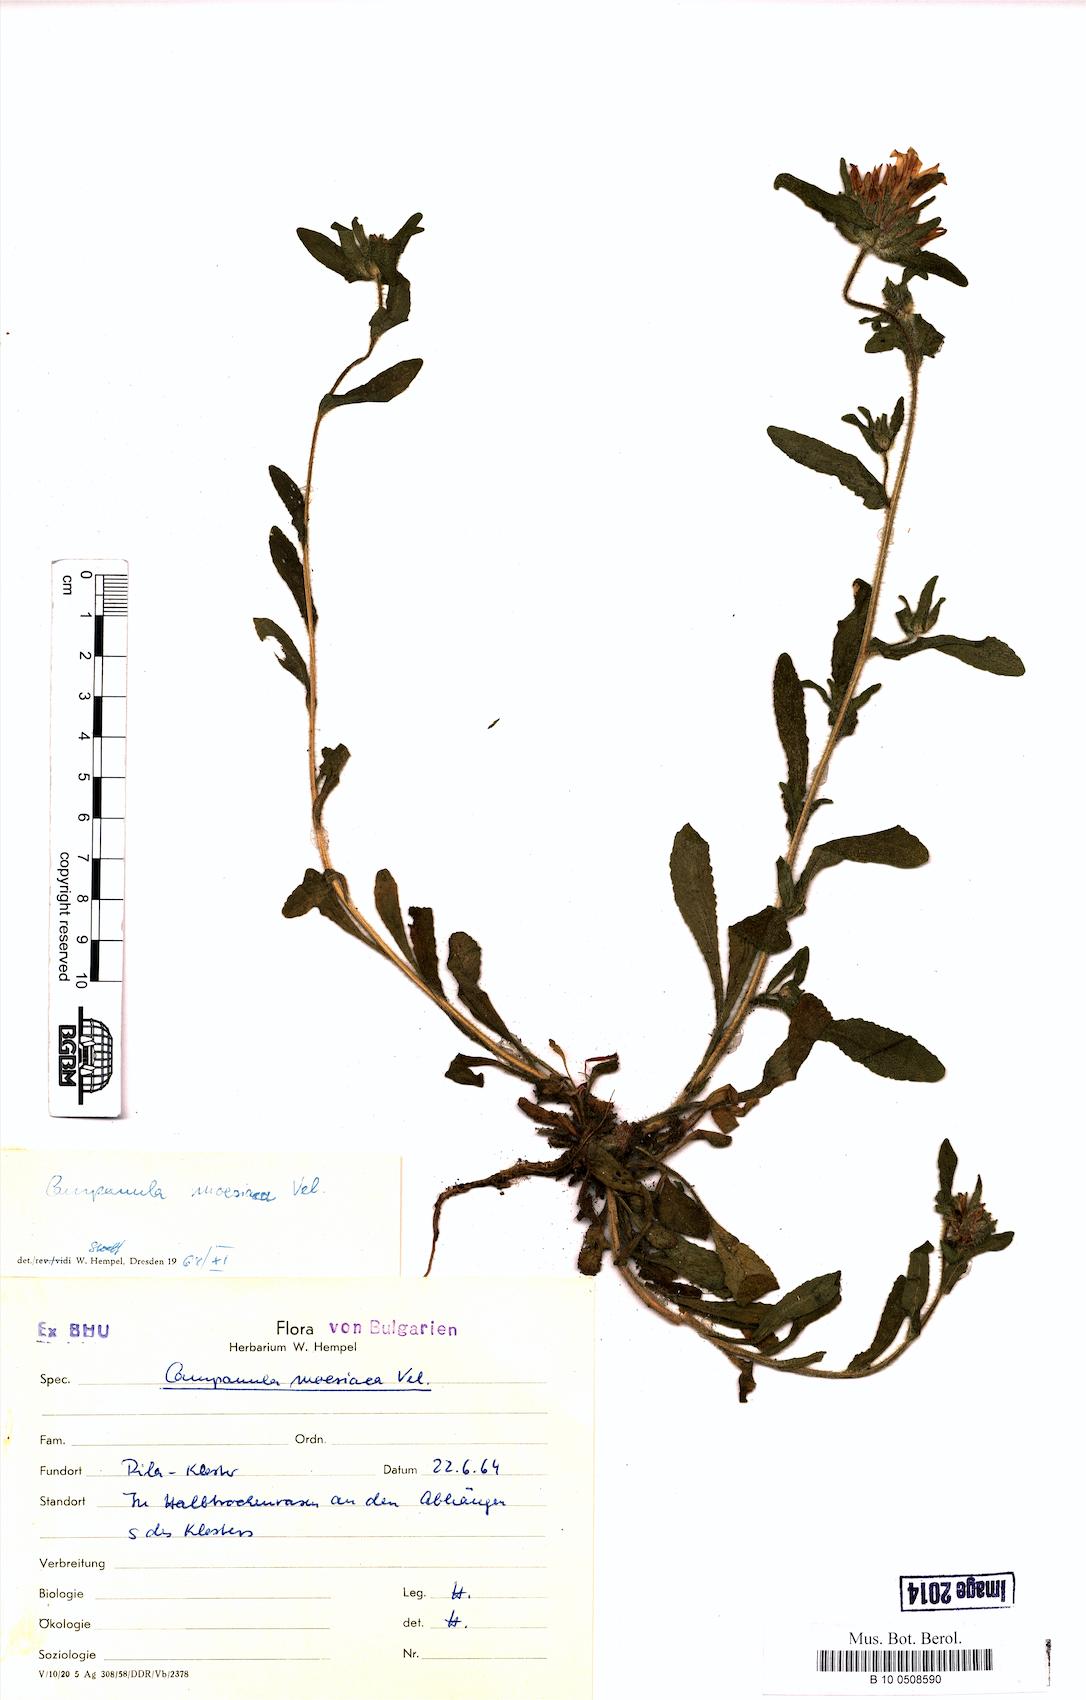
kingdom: Plantae
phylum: Tracheophyta
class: Magnoliopsida
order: Asterales
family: Campanulaceae
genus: Campanula
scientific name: Campanula moesiaca
